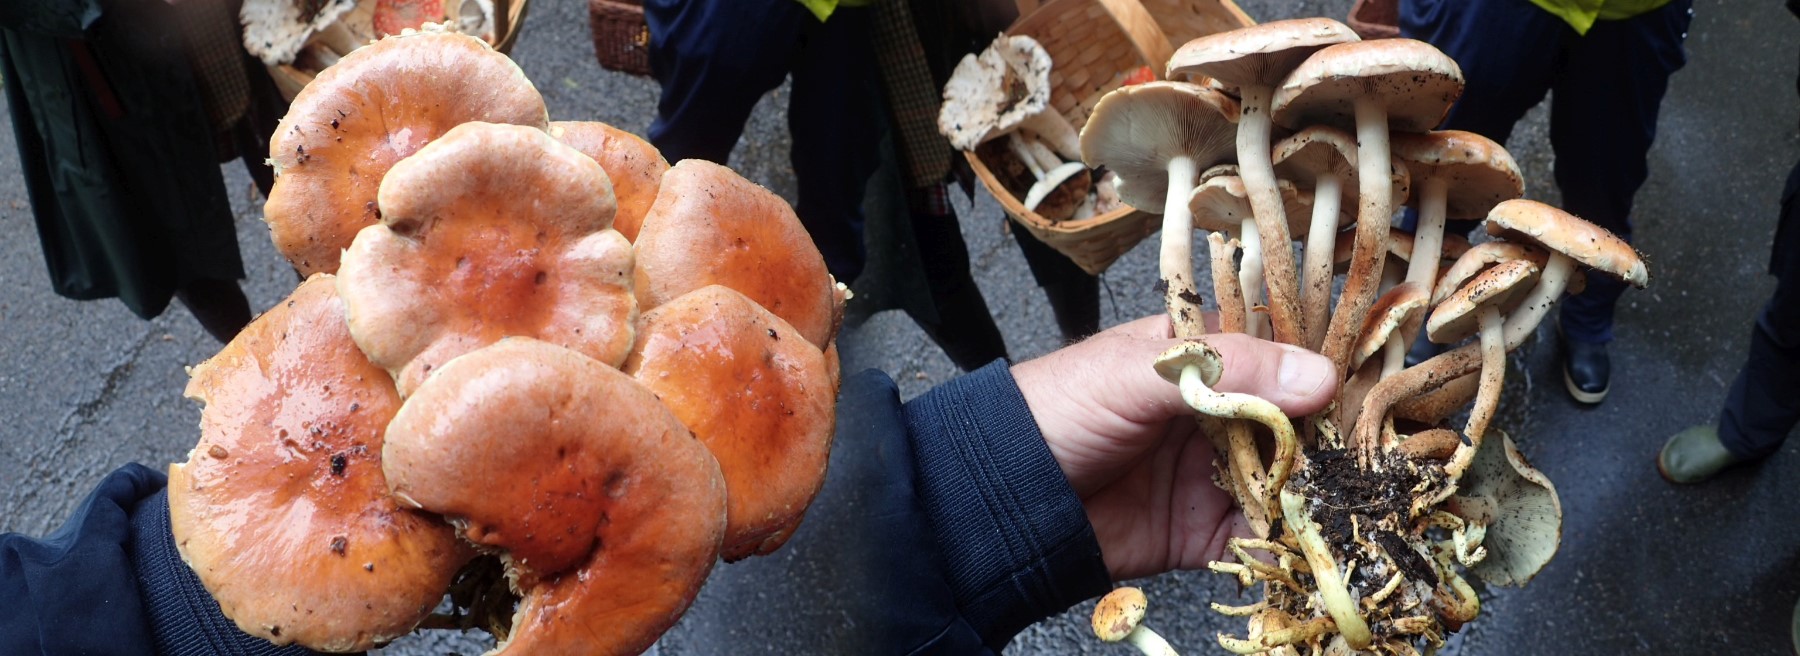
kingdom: Fungi
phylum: Basidiomycota
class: Agaricomycetes
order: Agaricales
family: Strophariaceae
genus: Hypholoma
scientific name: Hypholoma lateritium
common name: teglrød svovlhat
